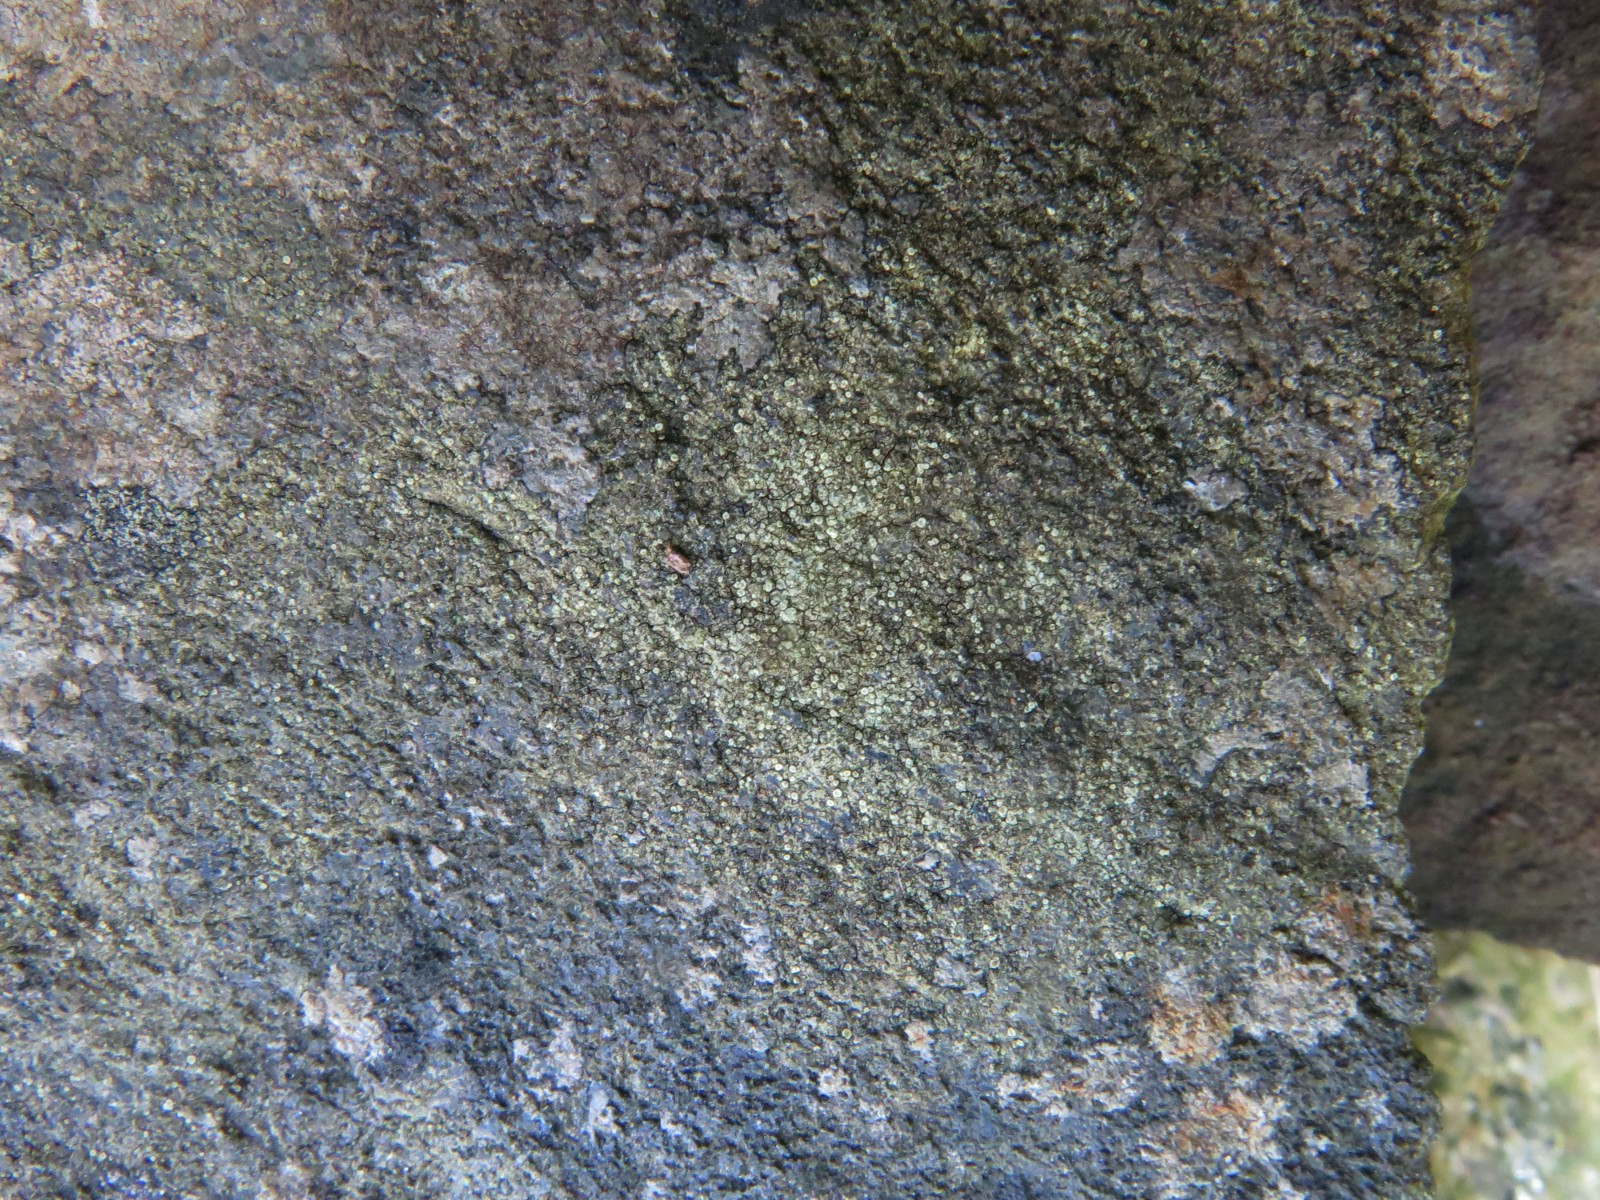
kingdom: Fungi
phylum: Ascomycota
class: Lecanoromycetes
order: Lecanorales
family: Lecanoraceae
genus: Lecanora
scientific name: Lecanora polytropa
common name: bleggrøn kantskivelav
